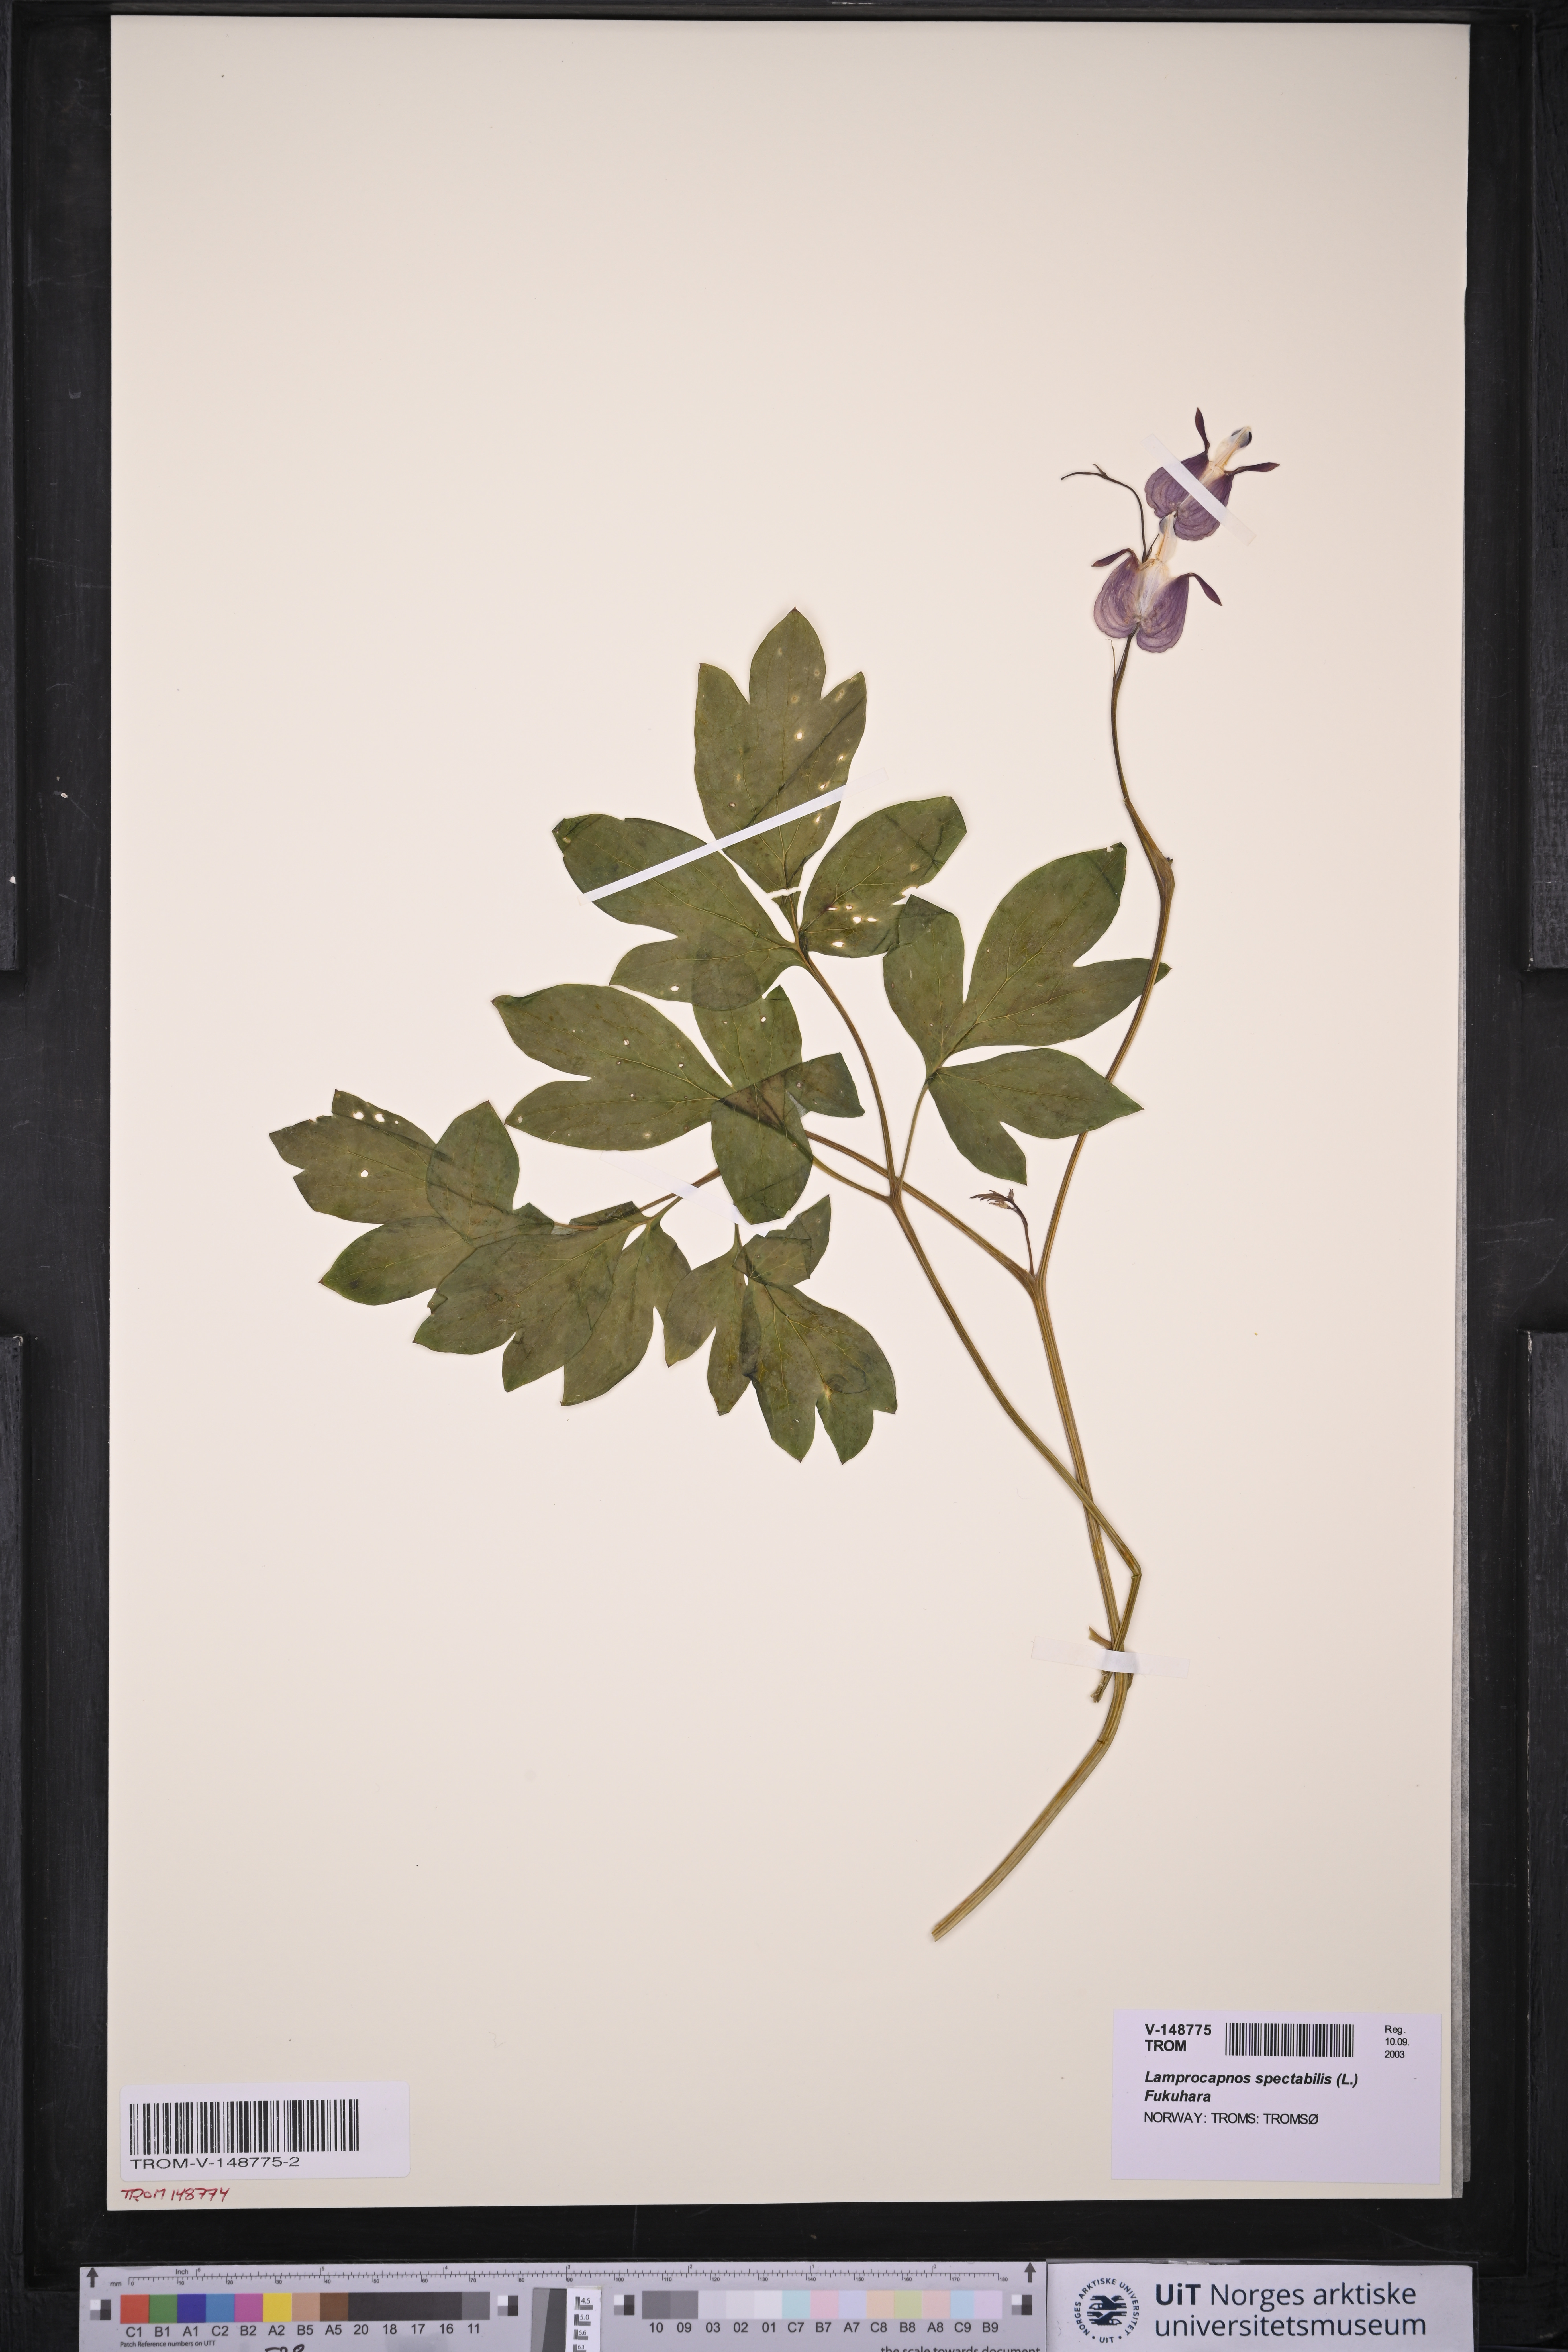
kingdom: Plantae
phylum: Tracheophyta
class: Magnoliopsida
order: Ranunculales
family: Papaveraceae
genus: Lamprocapnos
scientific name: Lamprocapnos spectabilis
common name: Asian bleeding-heart
